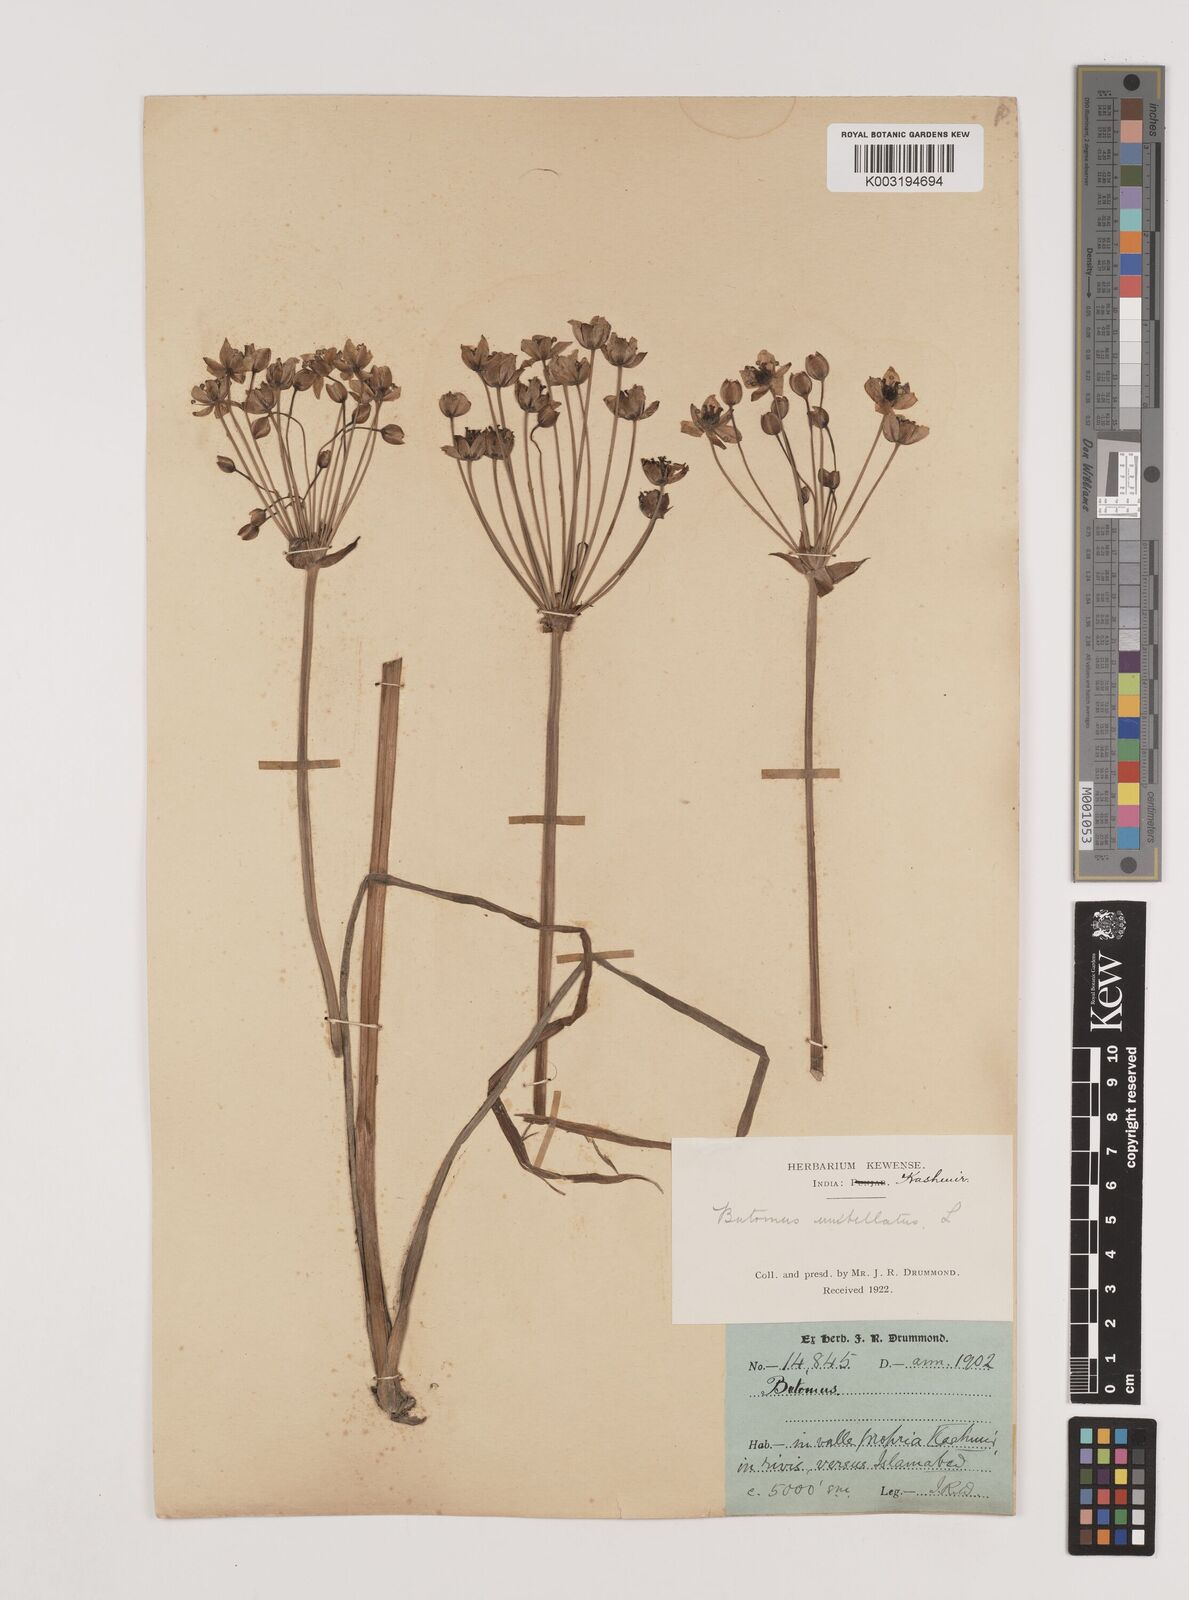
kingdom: Plantae
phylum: Tracheophyta
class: Liliopsida
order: Alismatales
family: Butomaceae
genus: Butomus
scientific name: Butomus umbellatus
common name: Flowering-rush
